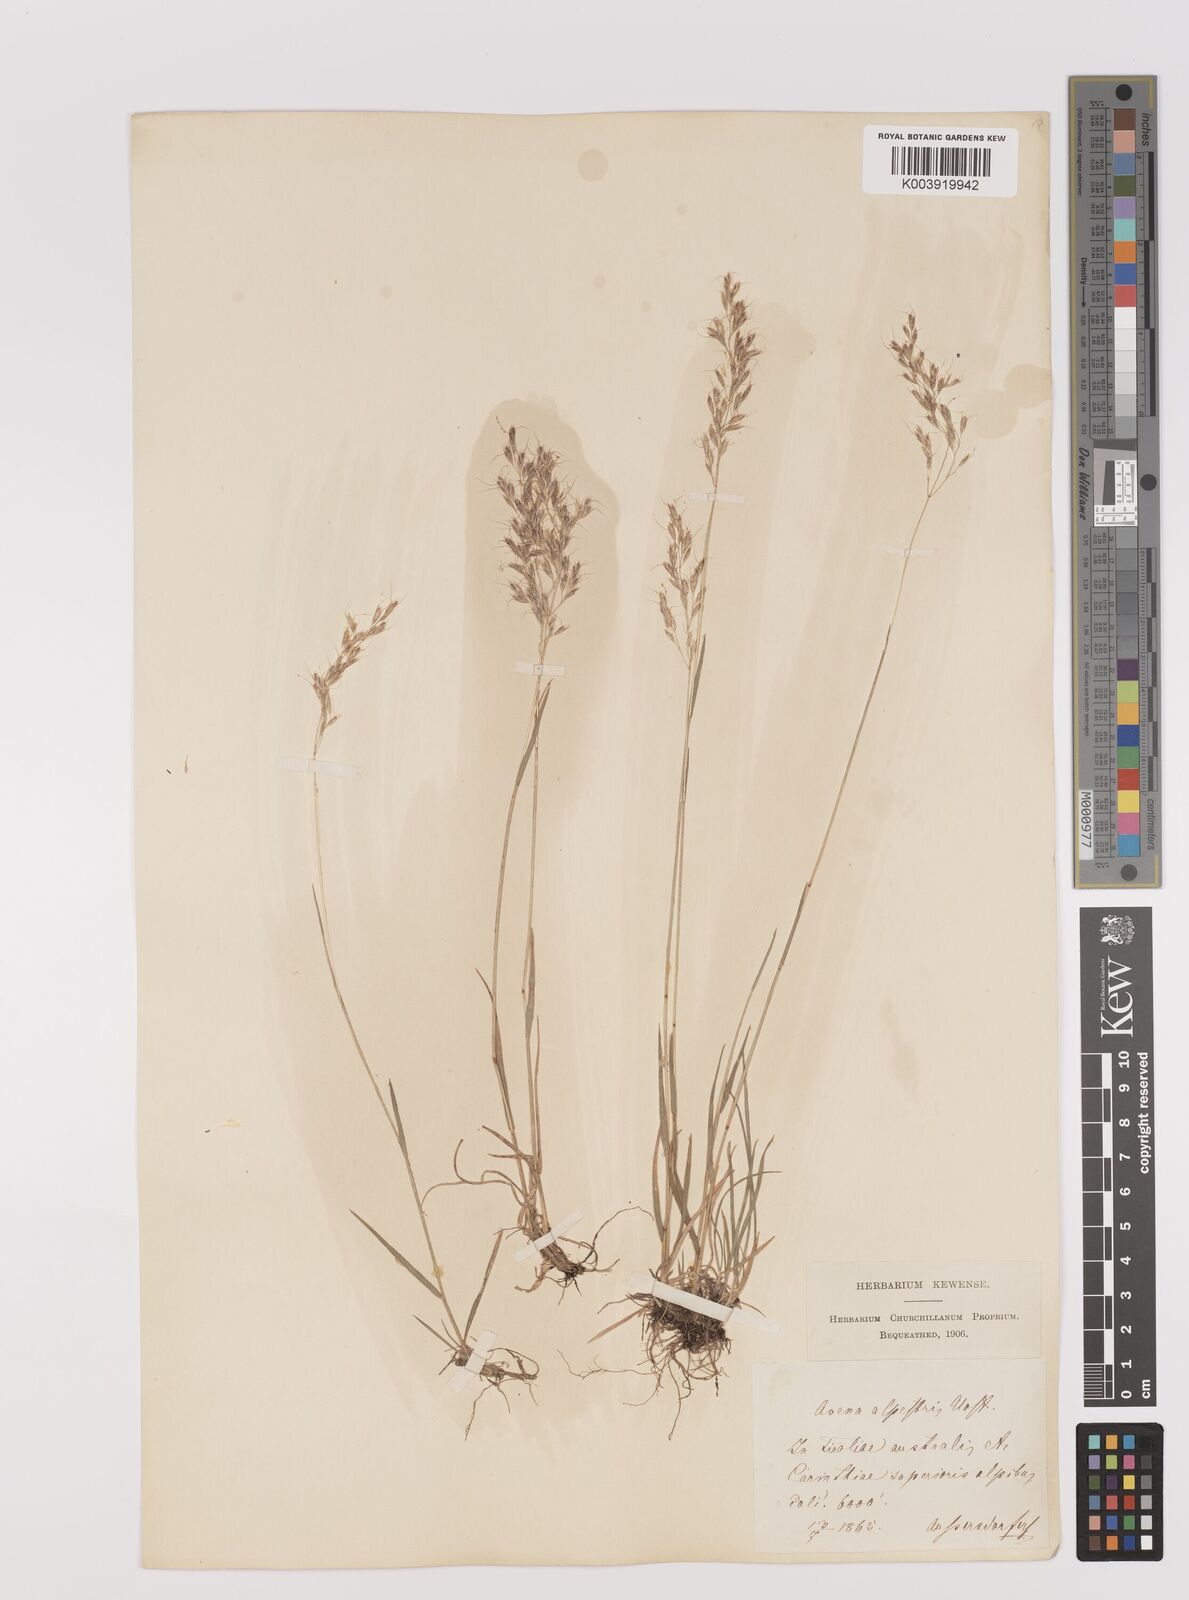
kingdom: Plantae
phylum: Tracheophyta
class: Liliopsida
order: Poales
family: Poaceae
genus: Trisetum
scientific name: Trisetum alpestre
